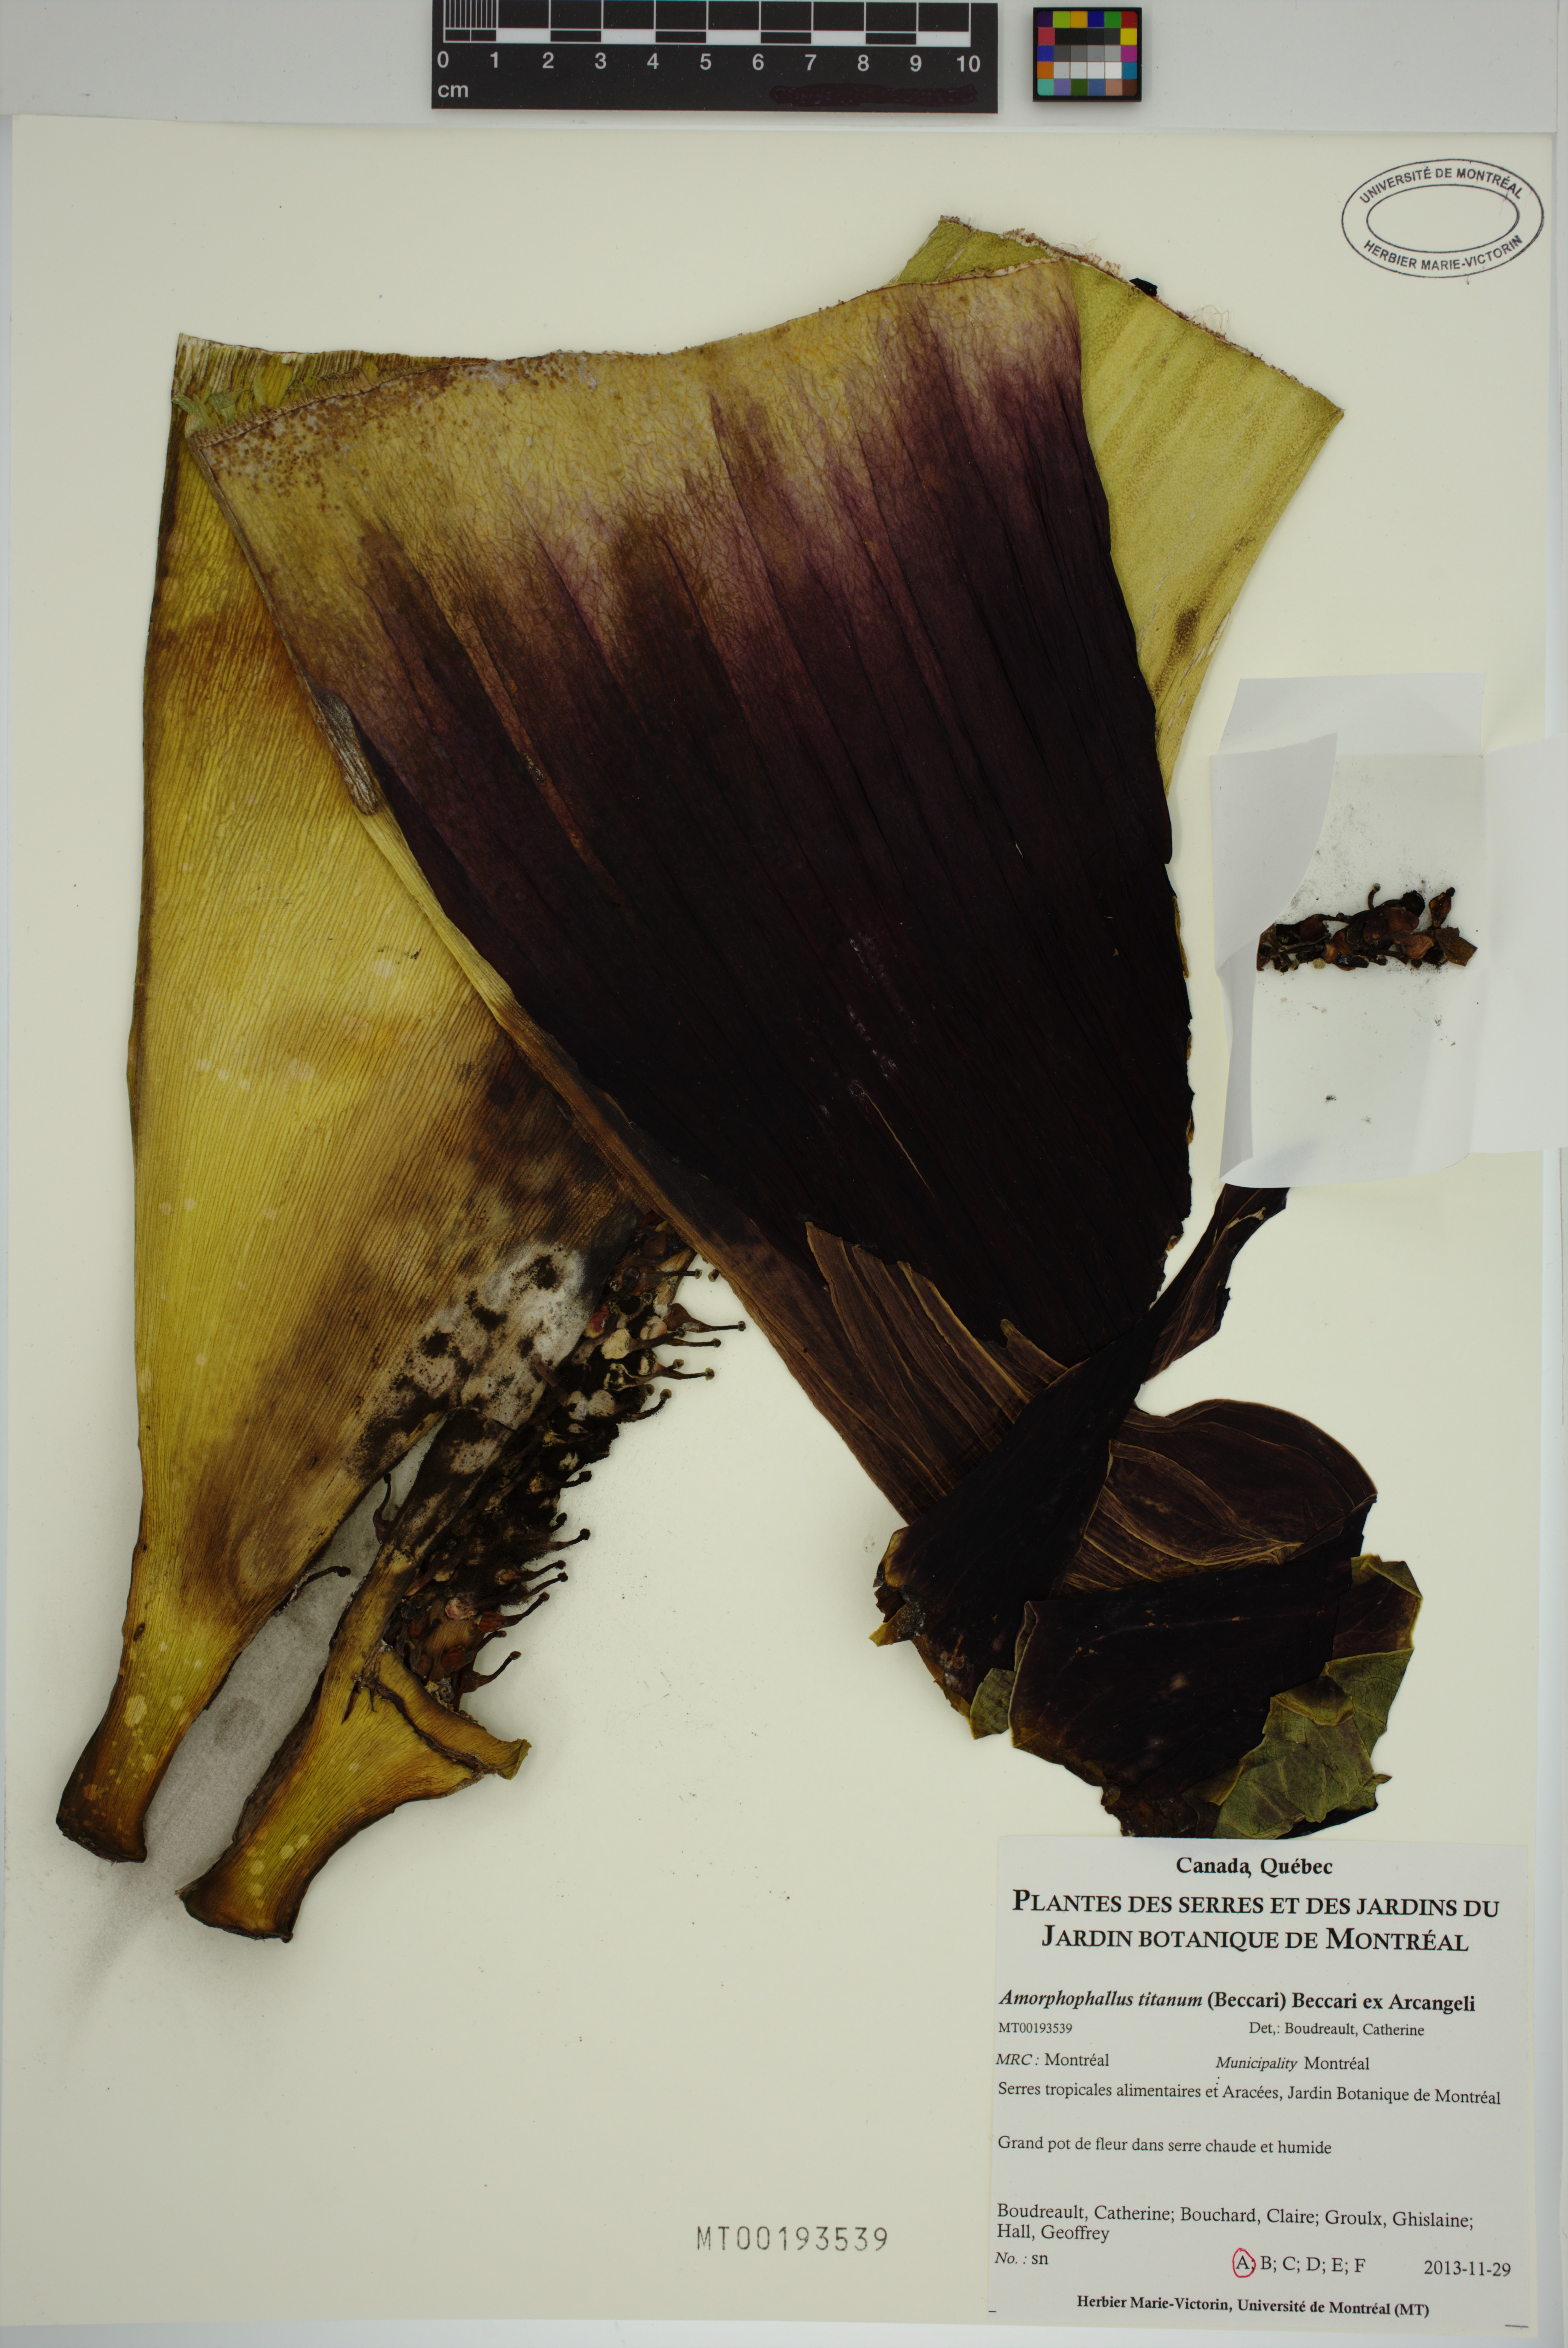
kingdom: Plantae
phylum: Tracheophyta
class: Liliopsida
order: Alismatales
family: Araceae
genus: Amorphophallus
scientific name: Amorphophallus titanum
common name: Titan arum
